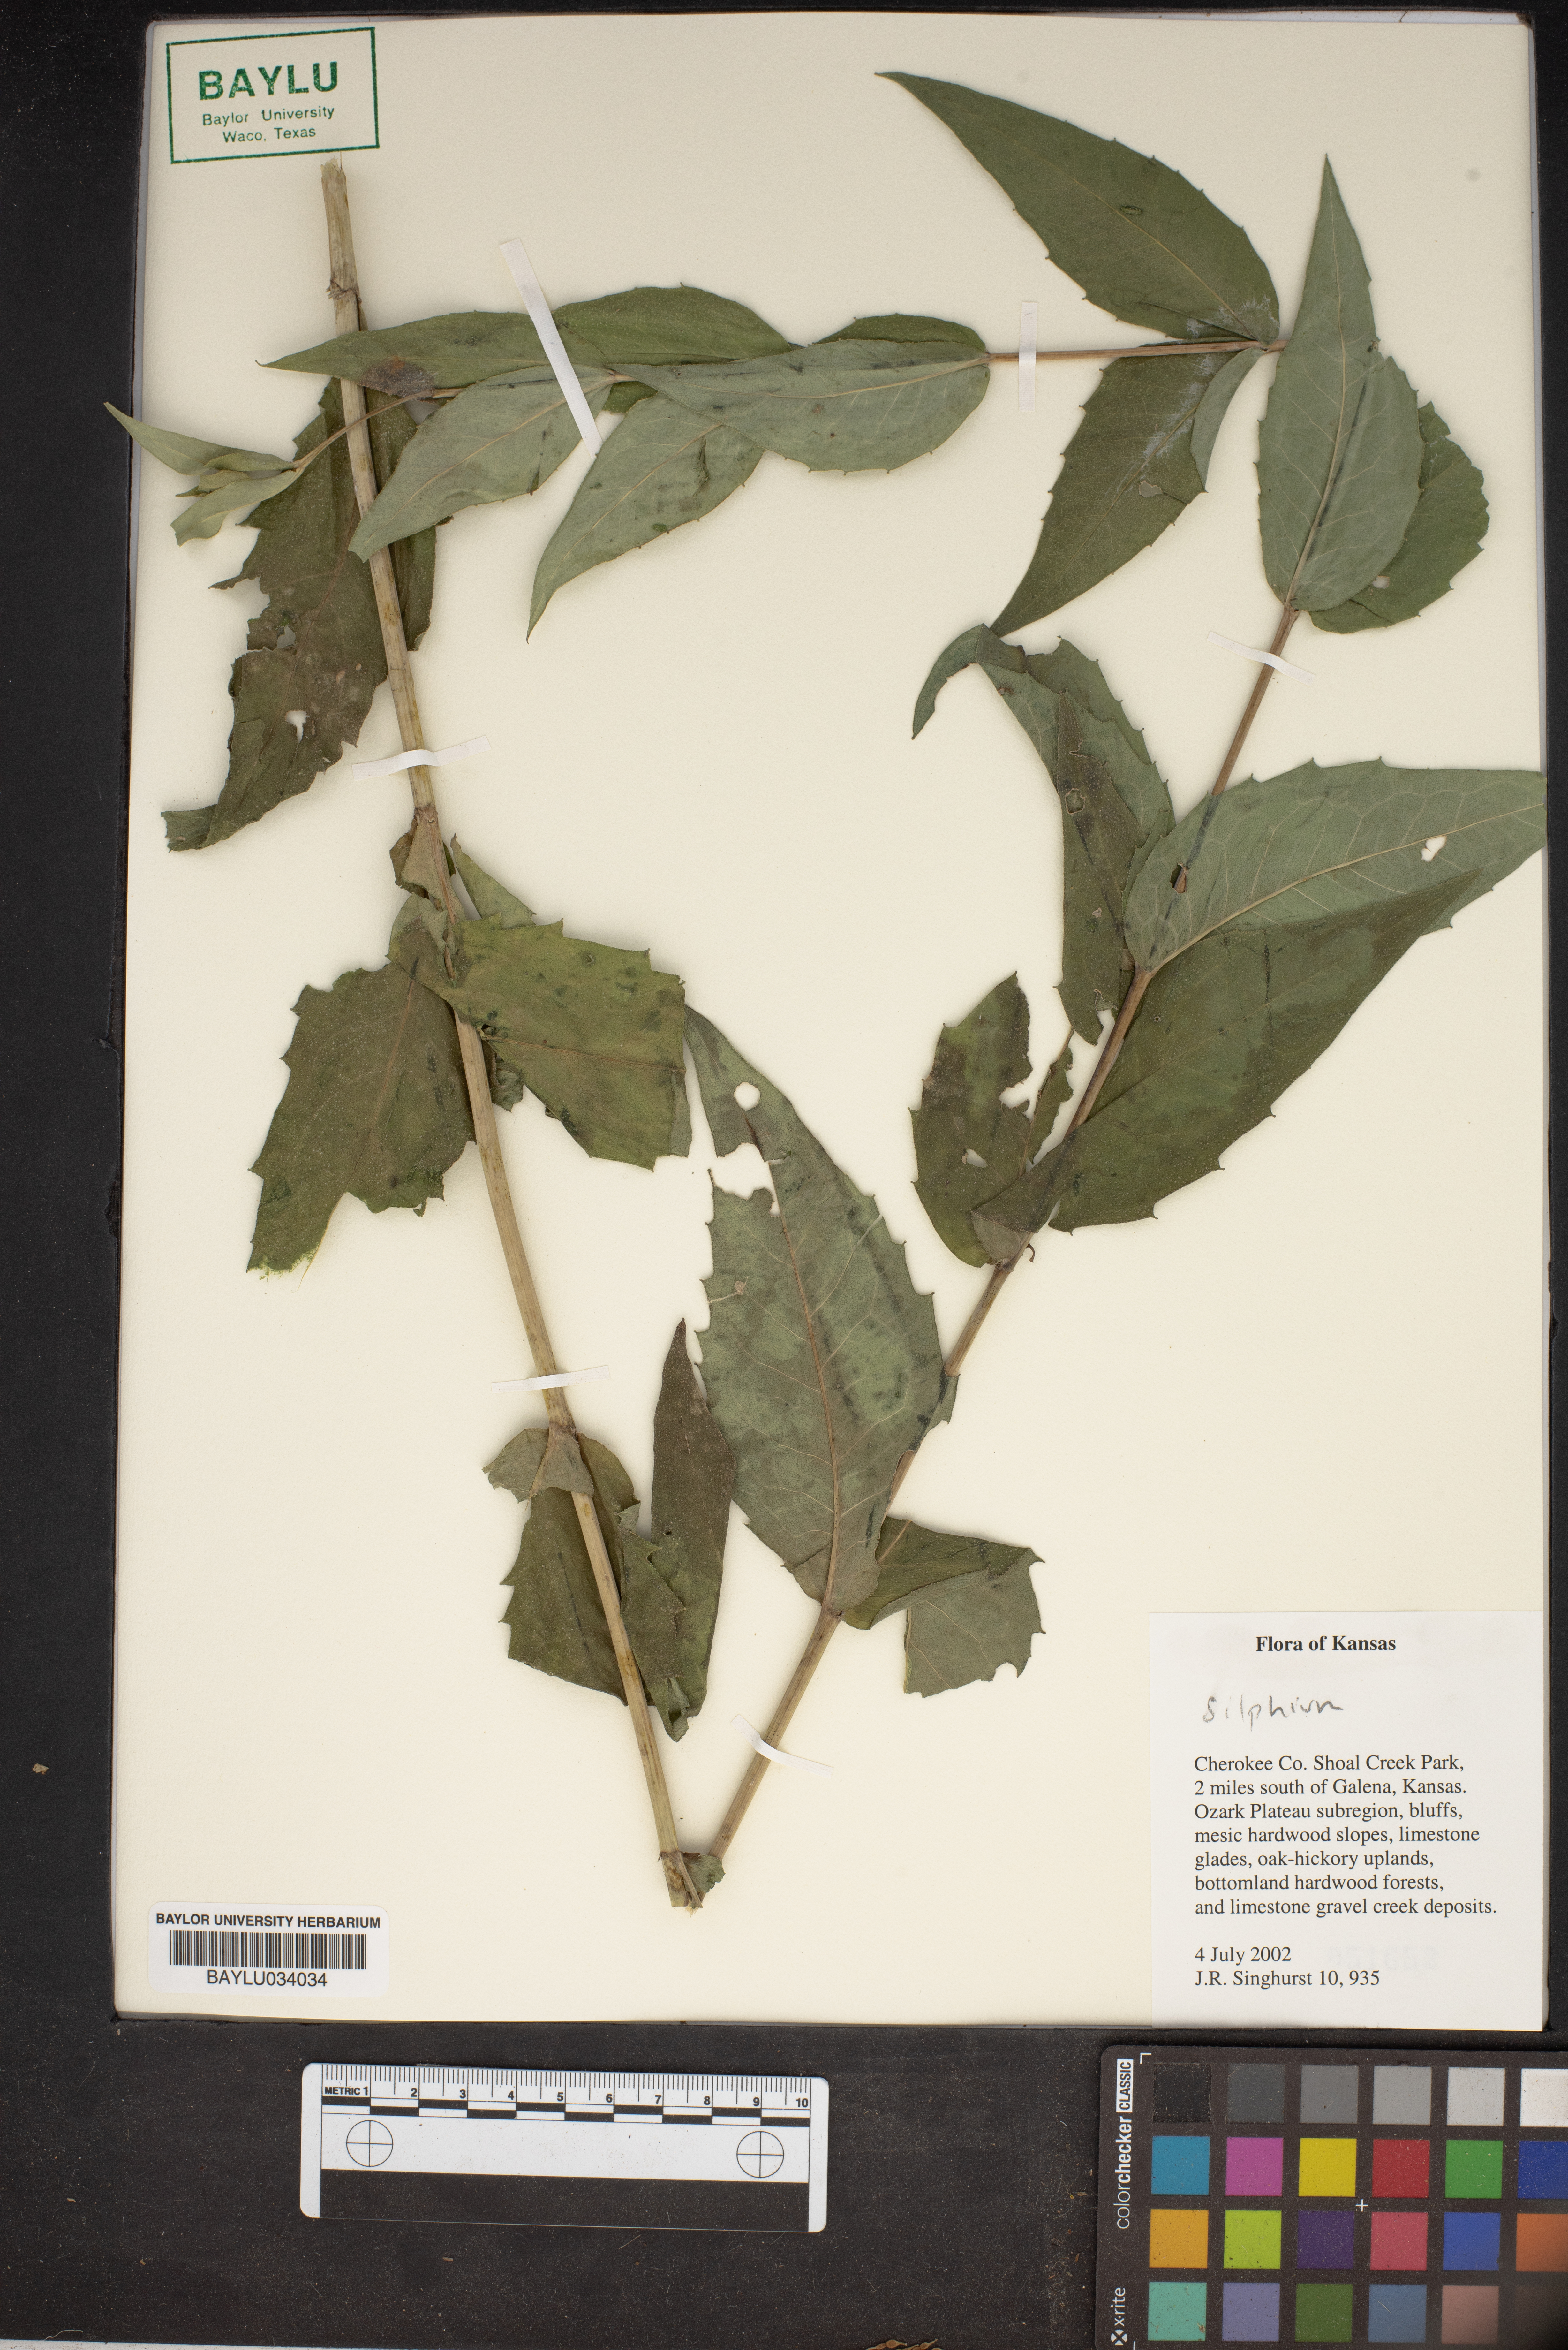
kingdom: Plantae
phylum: Tracheophyta
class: Magnoliopsida
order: Asterales
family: Asteraceae
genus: Silphium
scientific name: Silphium
